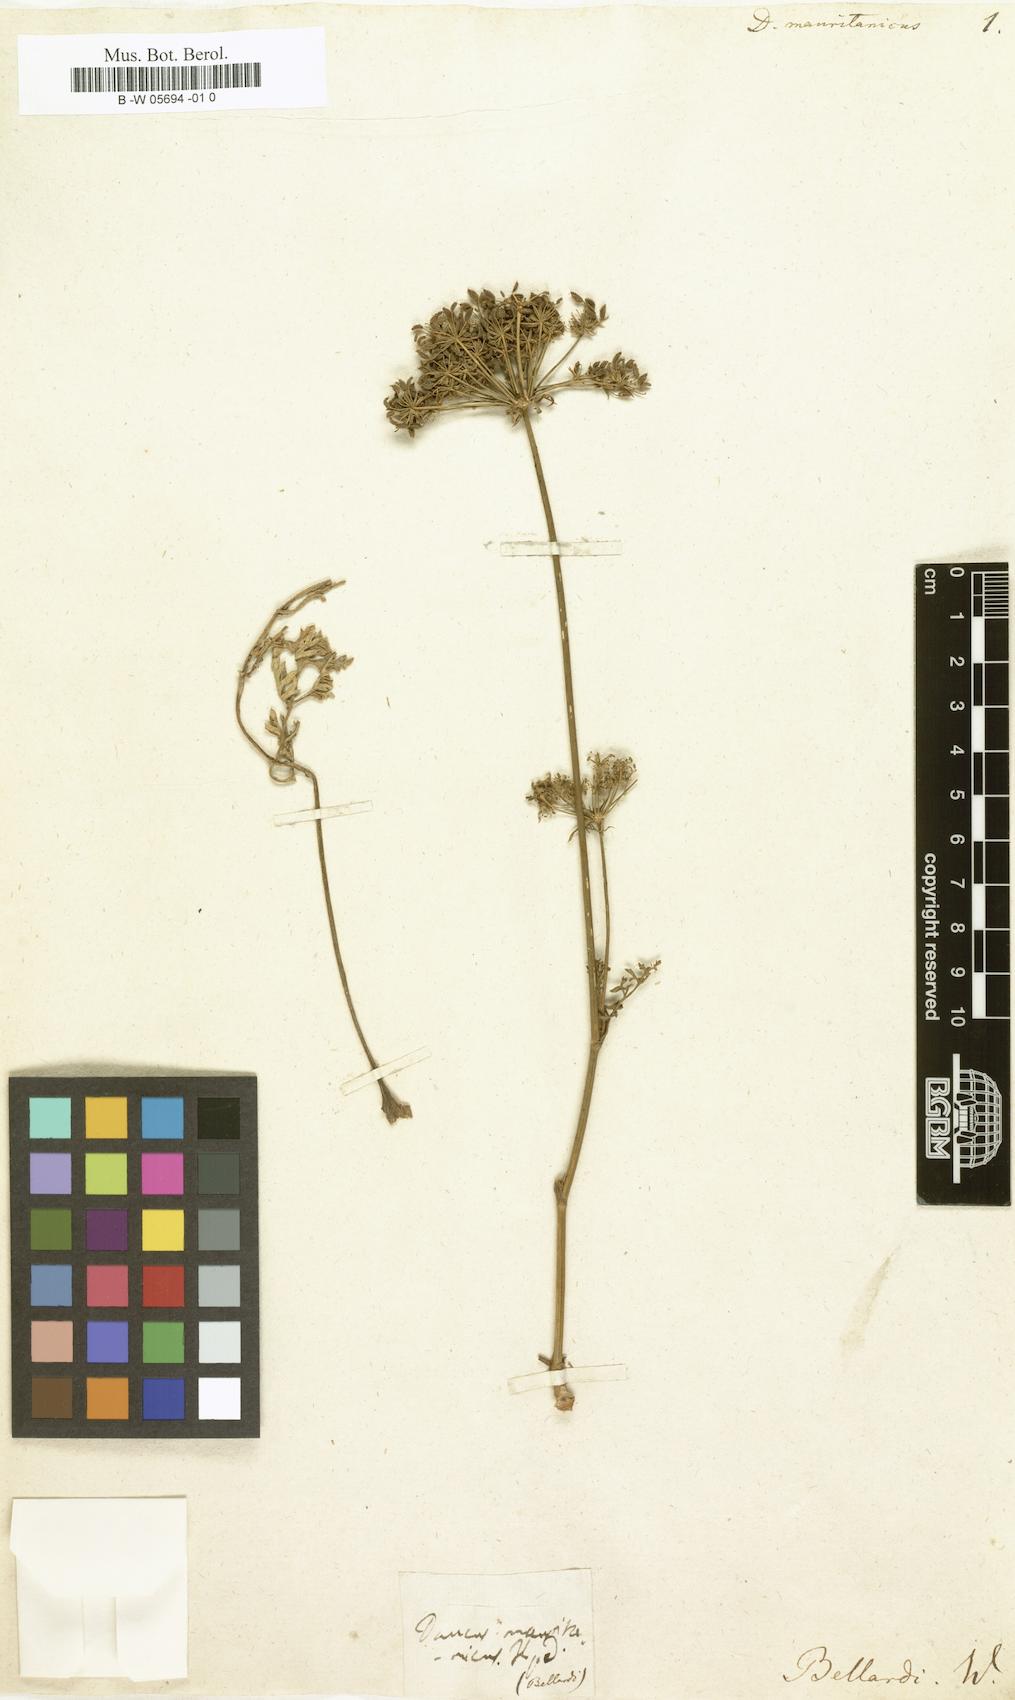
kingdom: Plantae
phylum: Tracheophyta
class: Magnoliopsida
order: Apiales
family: Apiaceae
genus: Daucus
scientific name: Daucus carota
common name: Wild carrot
